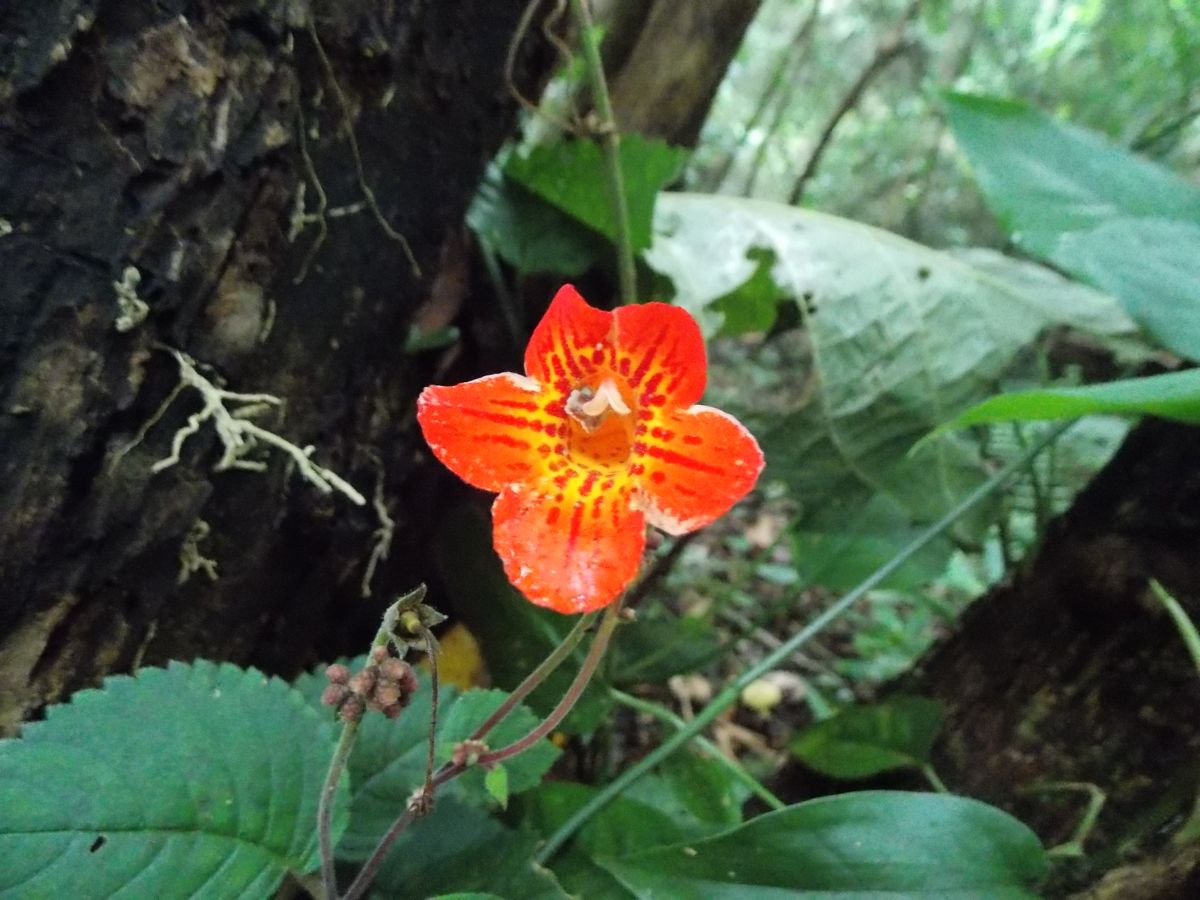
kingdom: Plantae
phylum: Tracheophyta
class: Magnoliopsida
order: Lamiales
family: Gesneriaceae
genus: Achimenes
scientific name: Achimenes pedunculata
